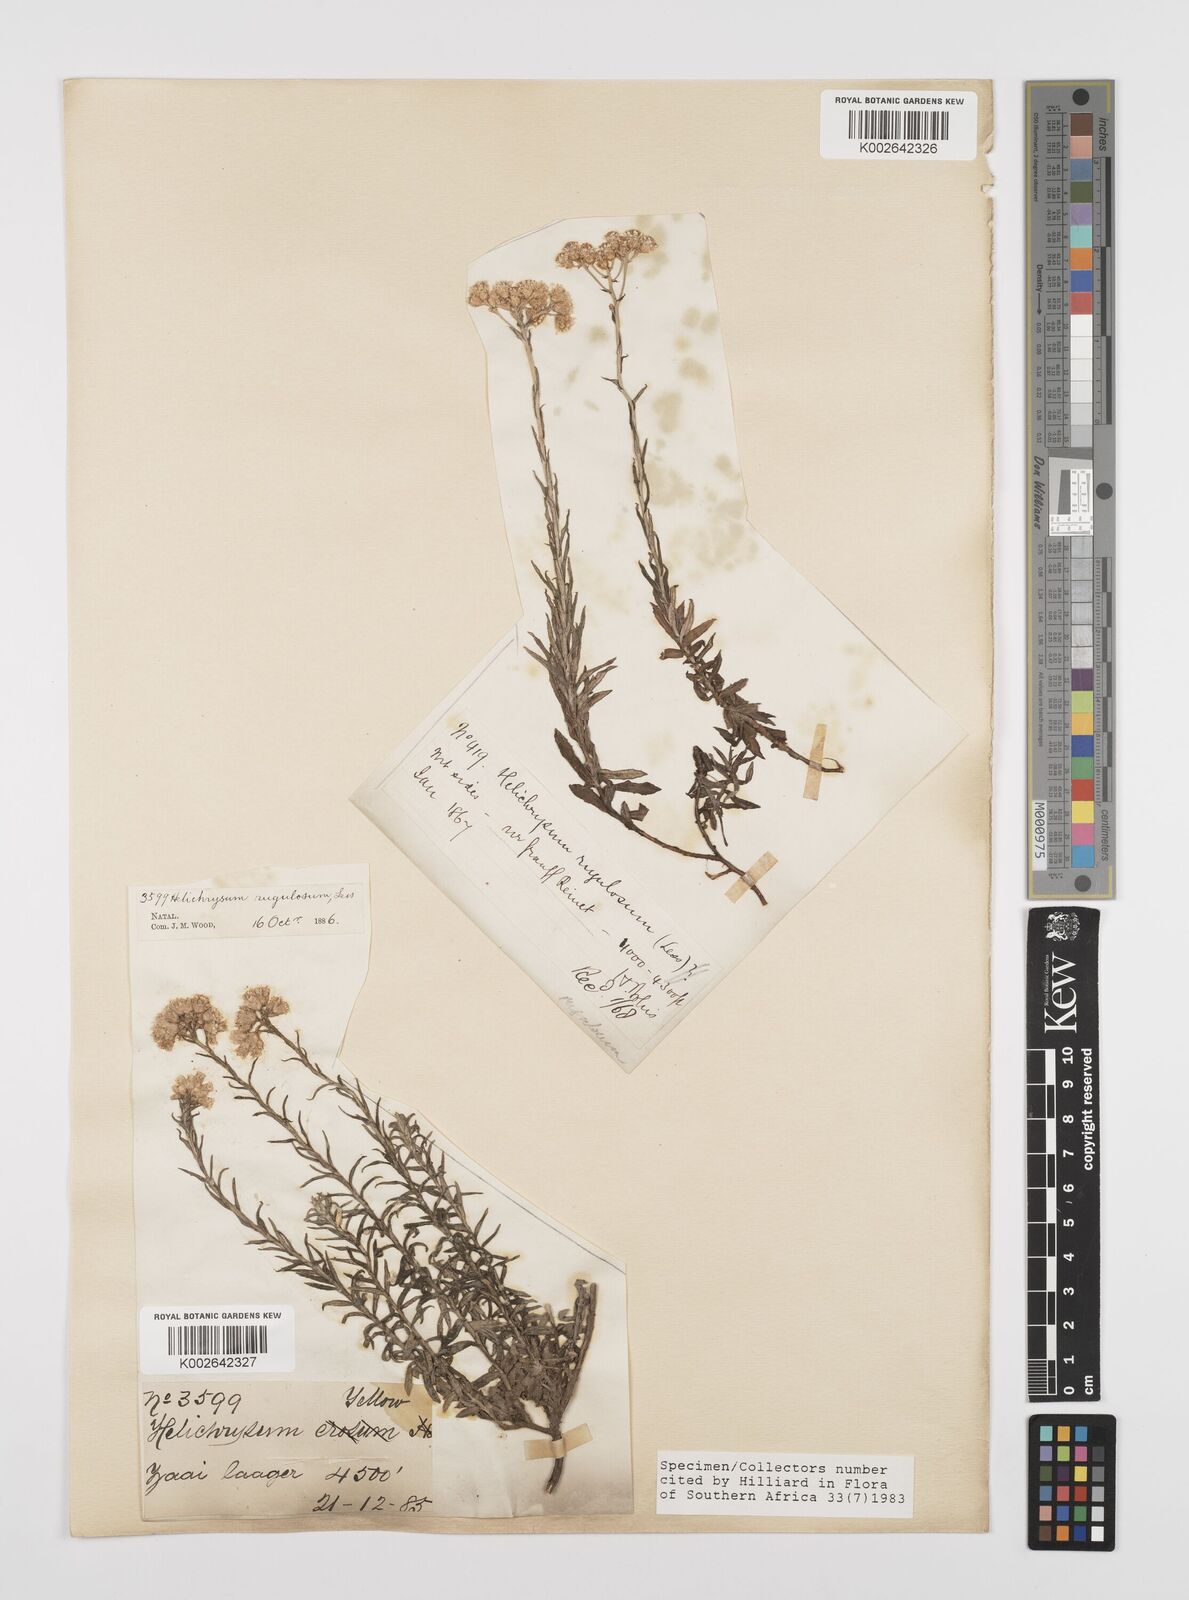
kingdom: Plantae
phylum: Tracheophyta
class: Magnoliopsida
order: Asterales
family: Asteraceae
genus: Helichrysum
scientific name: Helichrysum rugulosum
